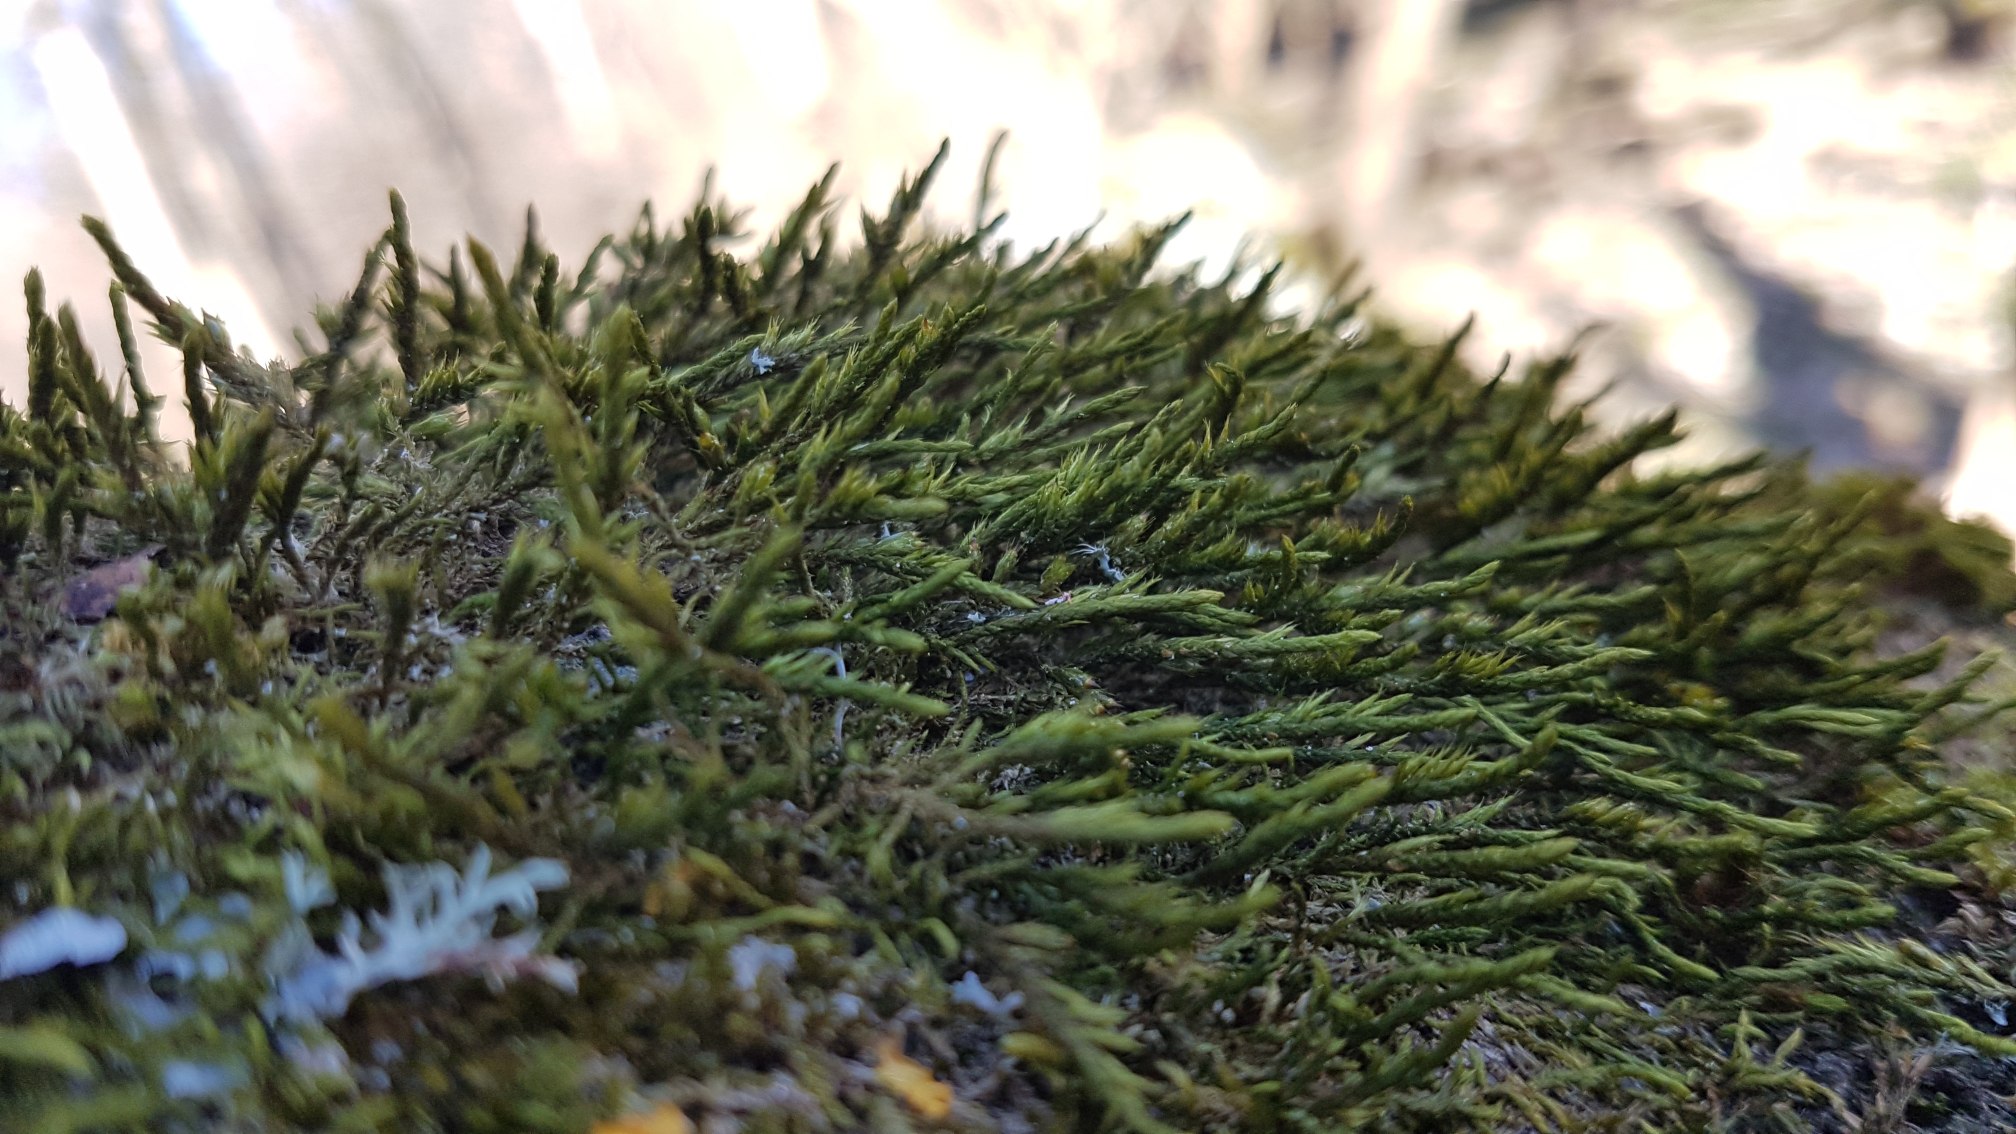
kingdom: Plantae
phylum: Bryophyta
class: Bryopsida
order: Hypnales
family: Cryphaeaceae
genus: Cryphaea
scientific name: Cryphaea heteromalla
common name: Bark-dækmos
